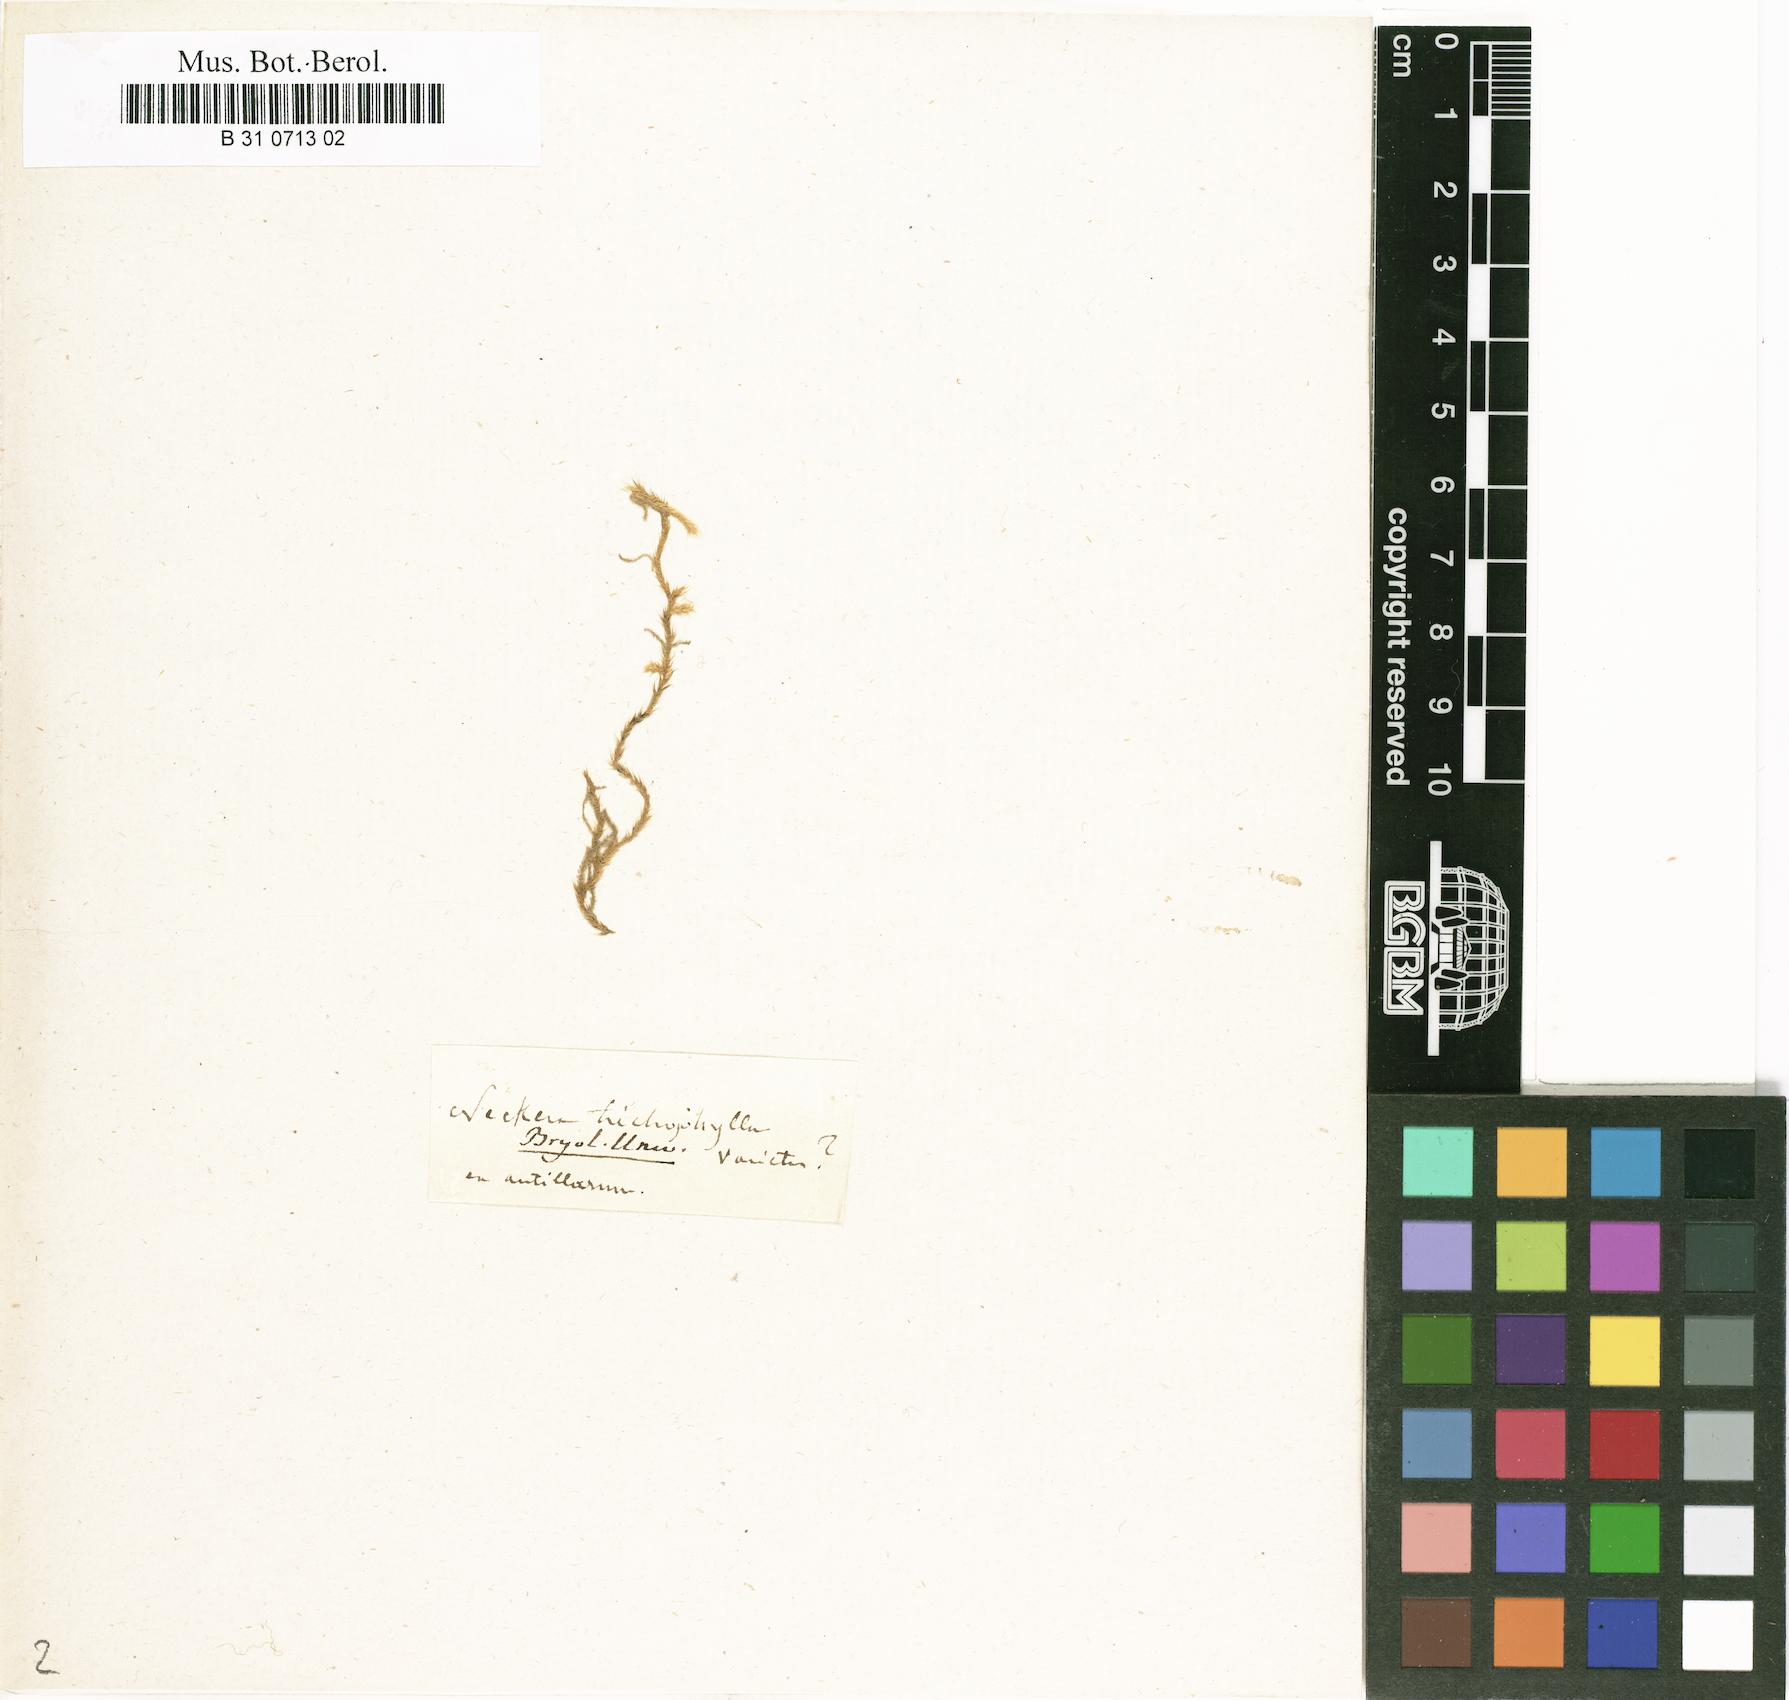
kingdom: Plantae
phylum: Bryophyta
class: Bryopsida
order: Hypnales
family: Meteoriaceae
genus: Lepyrodontopsis
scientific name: Lepyrodontopsis trichophylla
